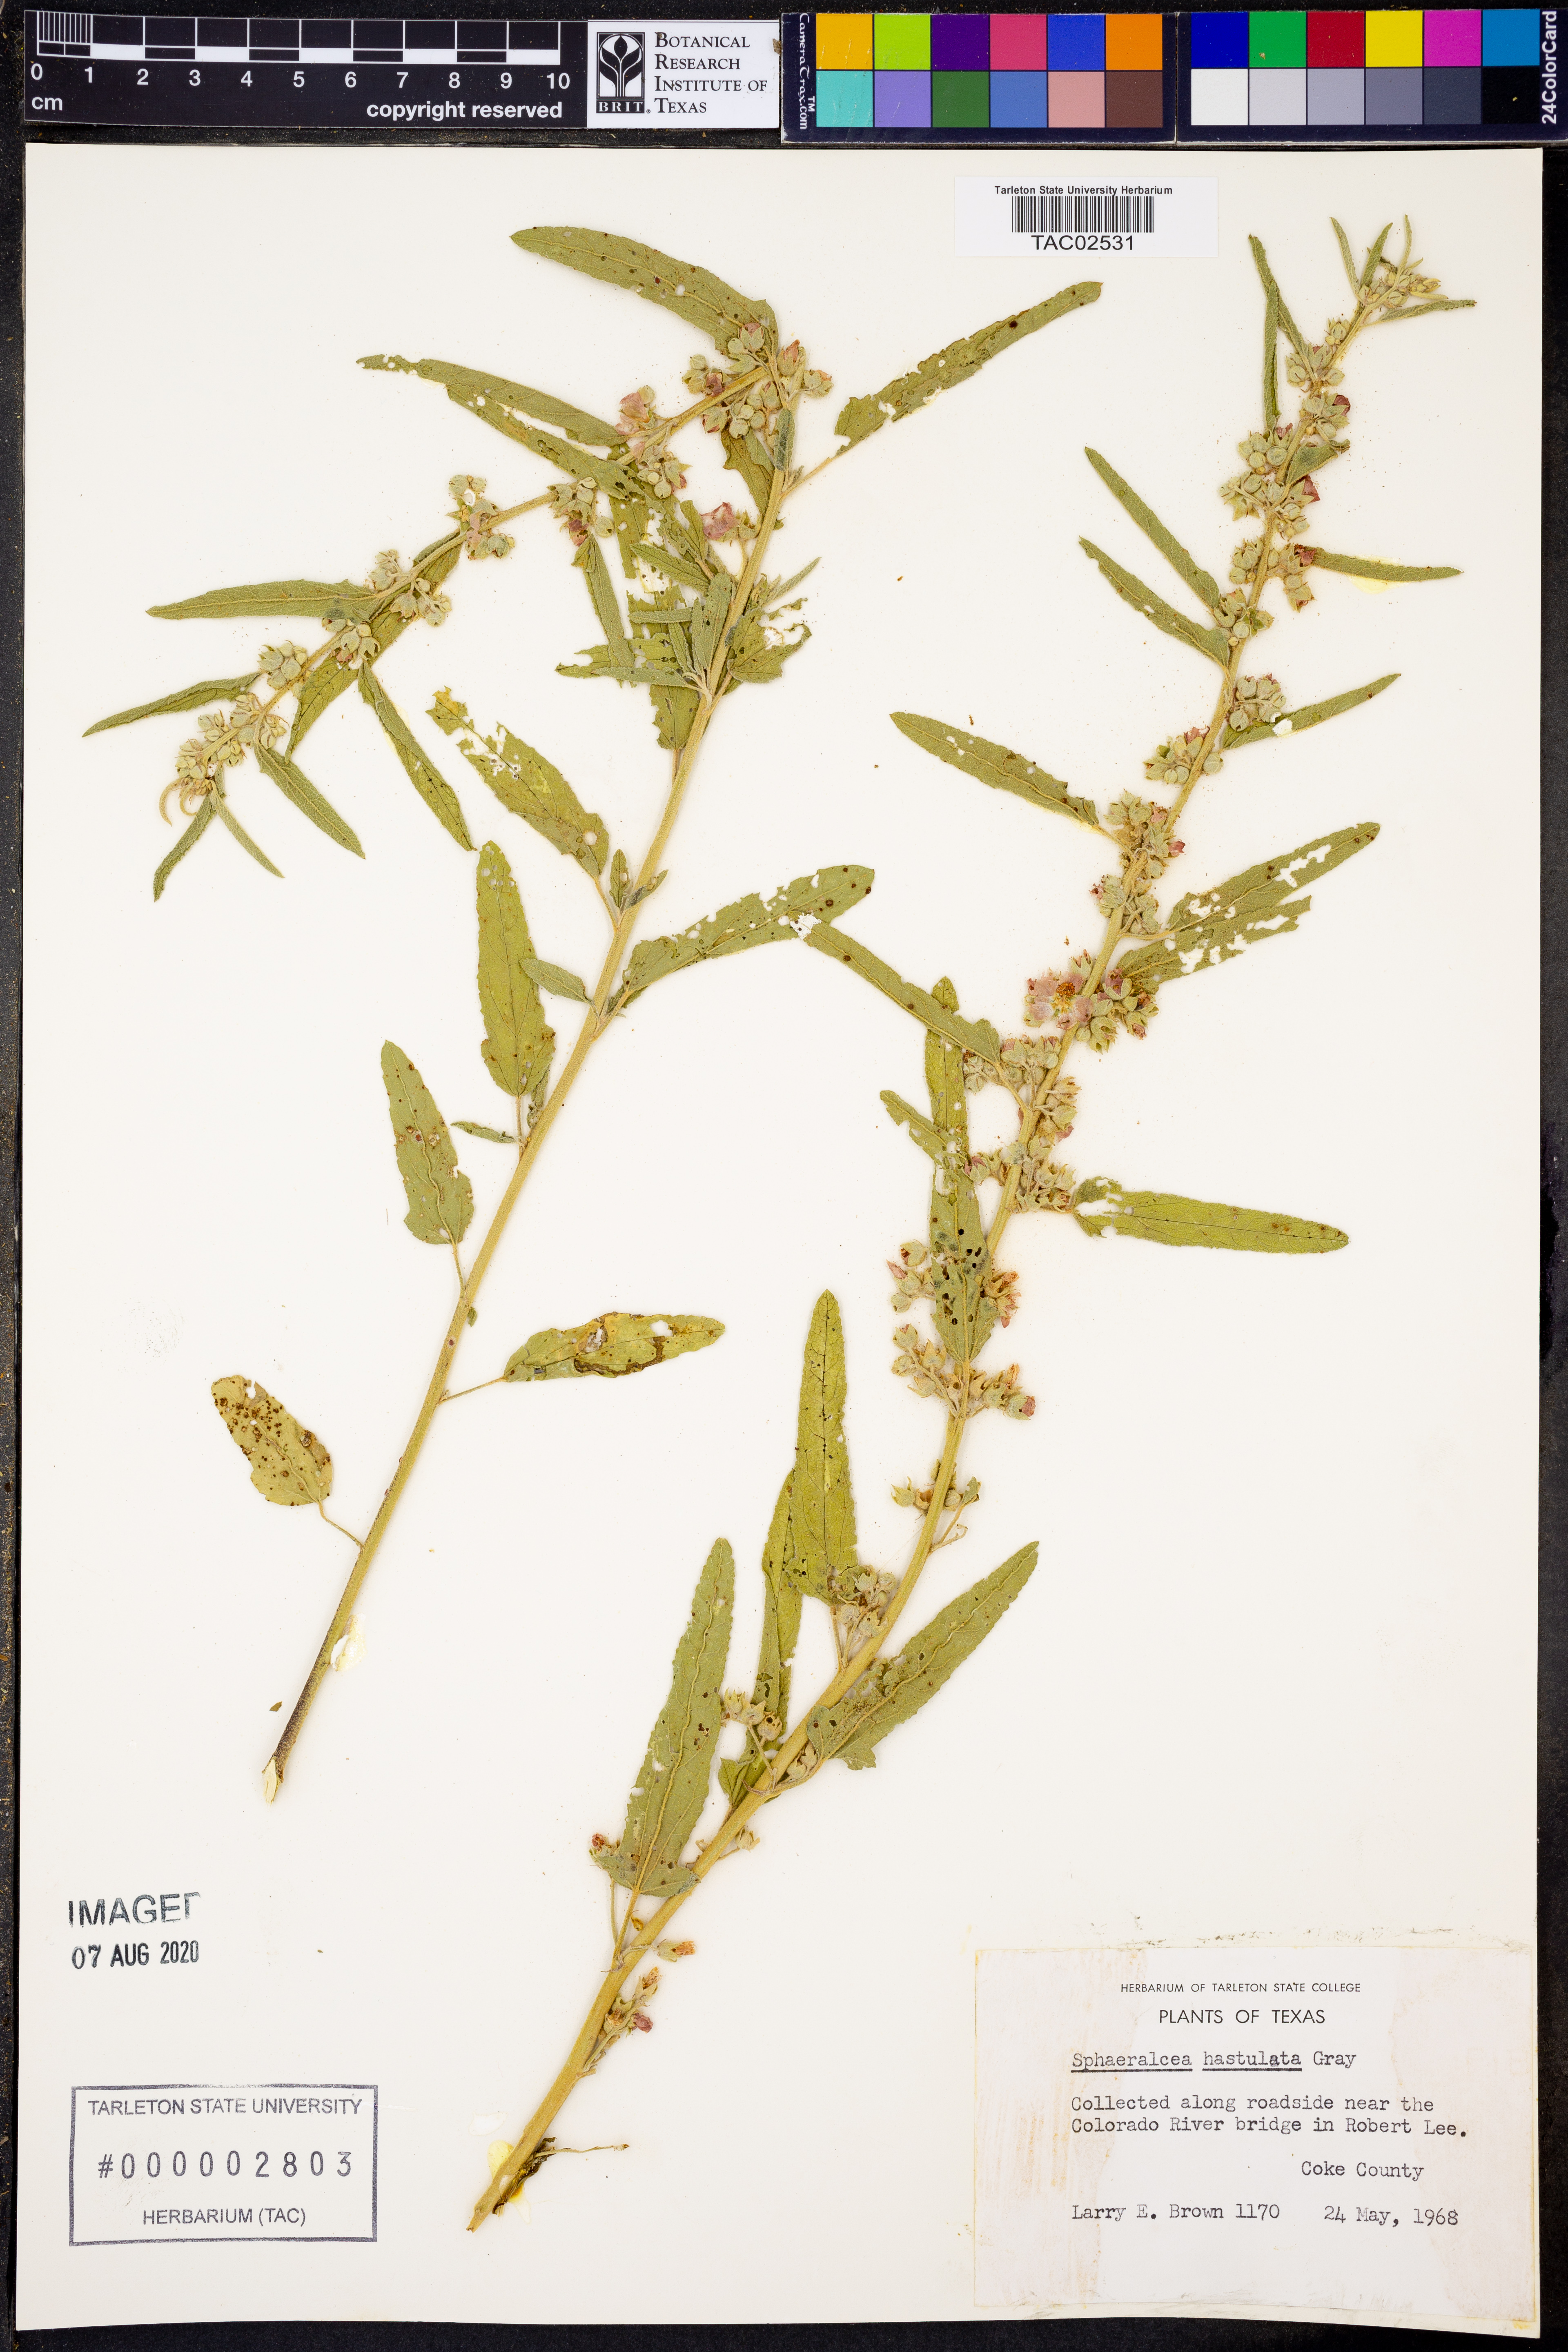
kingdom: Plantae
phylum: Tracheophyta
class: Magnoliopsida
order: Malvales
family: Malvaceae
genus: Sphaeralcea
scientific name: Sphaeralcea hastulata
